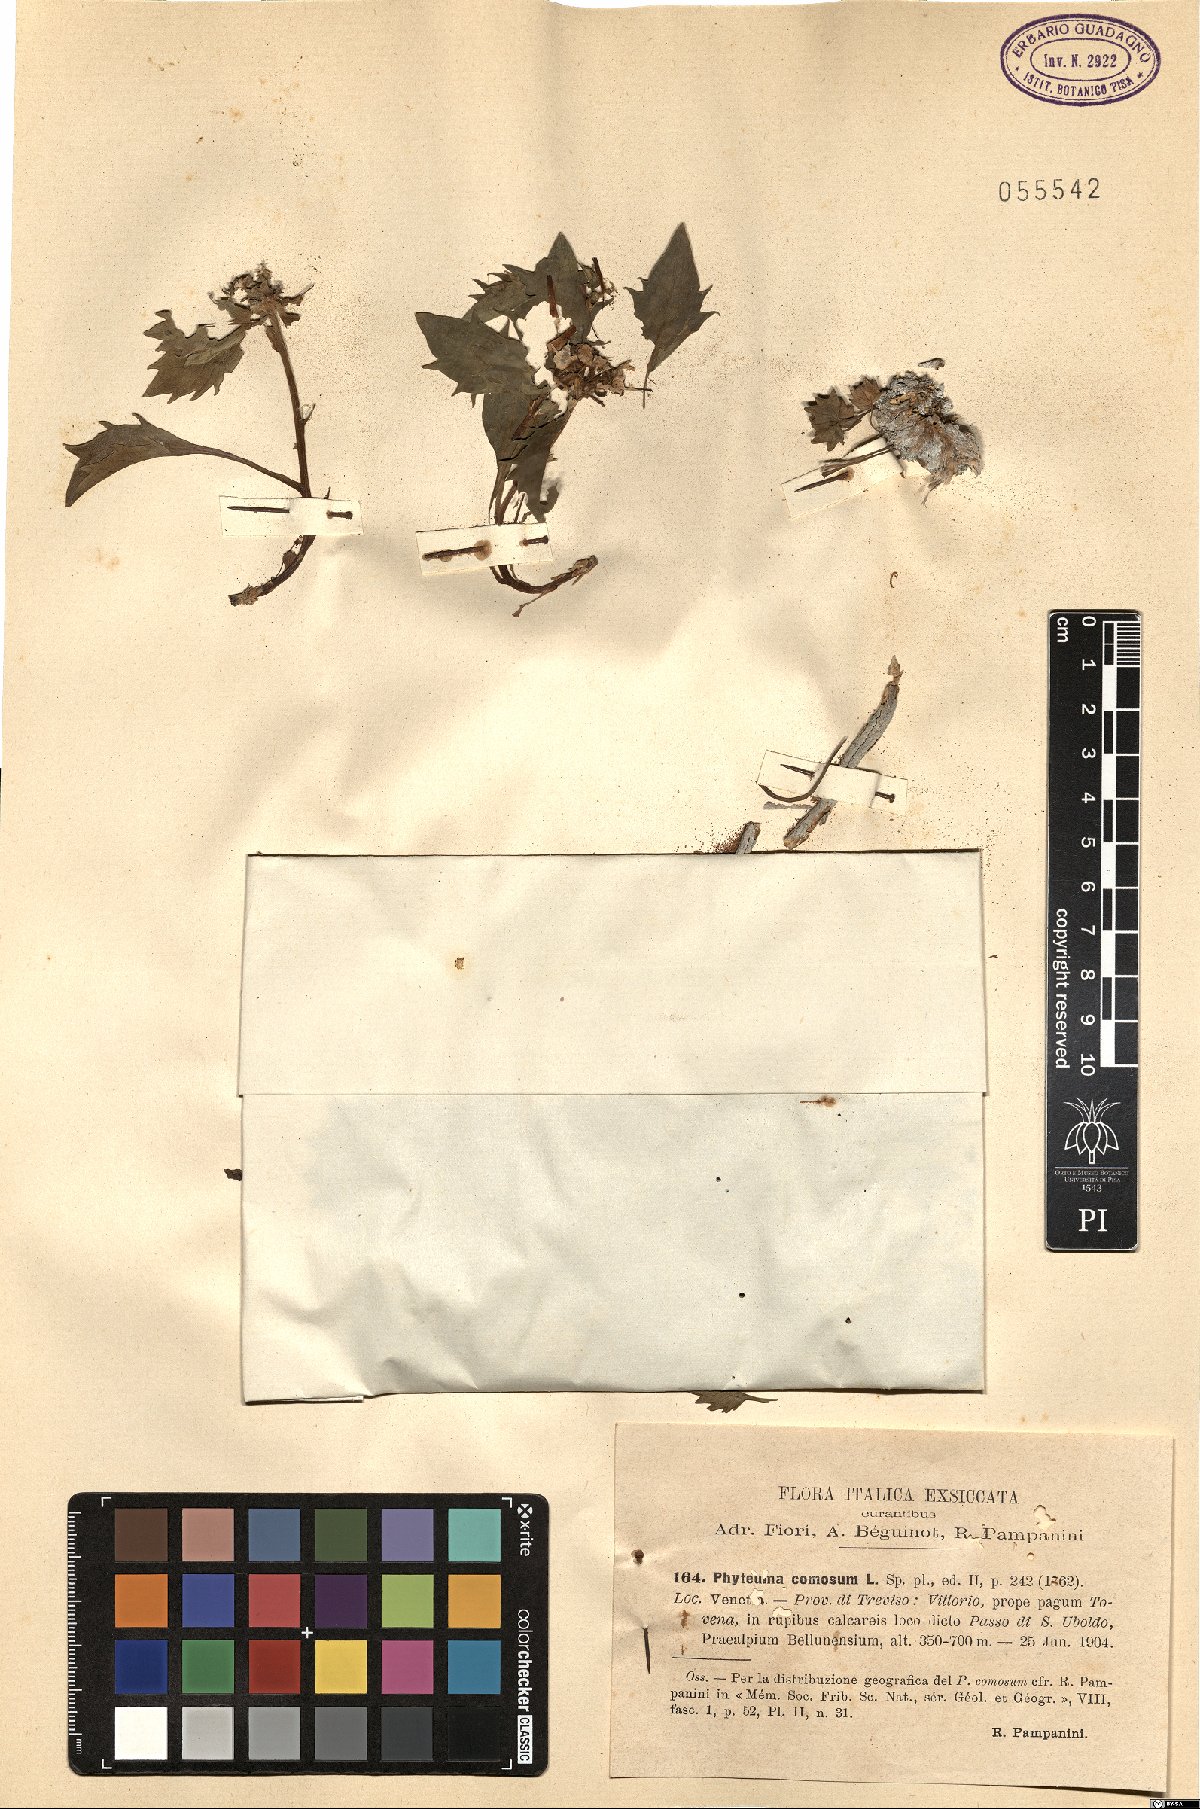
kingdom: Plantae
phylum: Tracheophyta
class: Magnoliopsida
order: Asterales
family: Campanulaceae
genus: Physoplexis
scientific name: Physoplexis comosa
